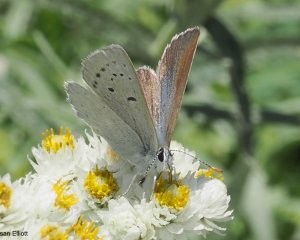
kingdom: Animalia
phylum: Arthropoda
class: Insecta
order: Lepidoptera
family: Lycaenidae
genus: Icaricia
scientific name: Icaricia icarioides
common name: Boisduval's Blue
